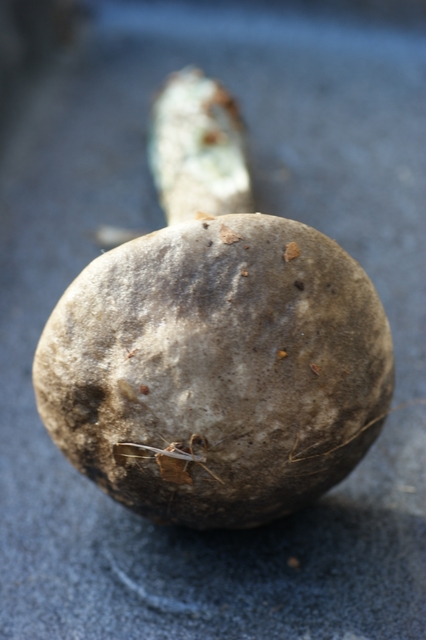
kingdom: Fungi
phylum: Basidiomycota
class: Agaricomycetes
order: Boletales
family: Boletaceae
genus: Leccinum
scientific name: Leccinum variicolor
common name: flammet skælrørhat
